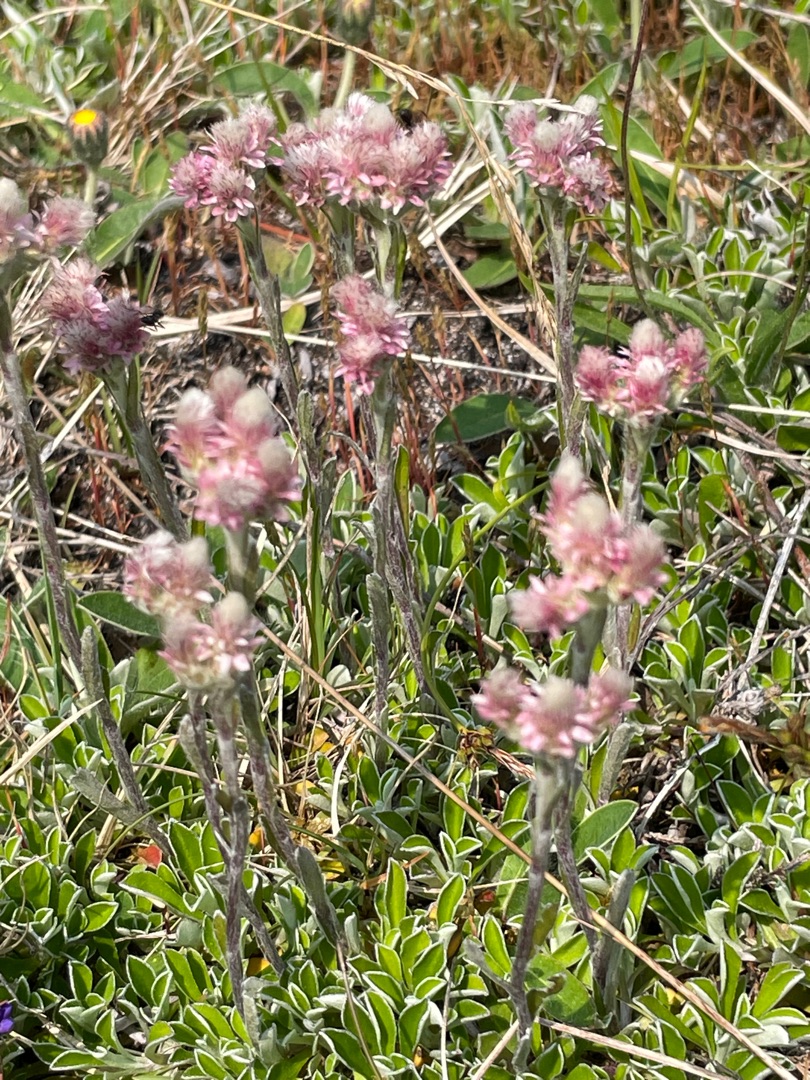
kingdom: Plantae
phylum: Tracheophyta
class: Magnoliopsida
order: Asterales
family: Asteraceae
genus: Antennaria
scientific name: Antennaria dioica
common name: Kattefod
